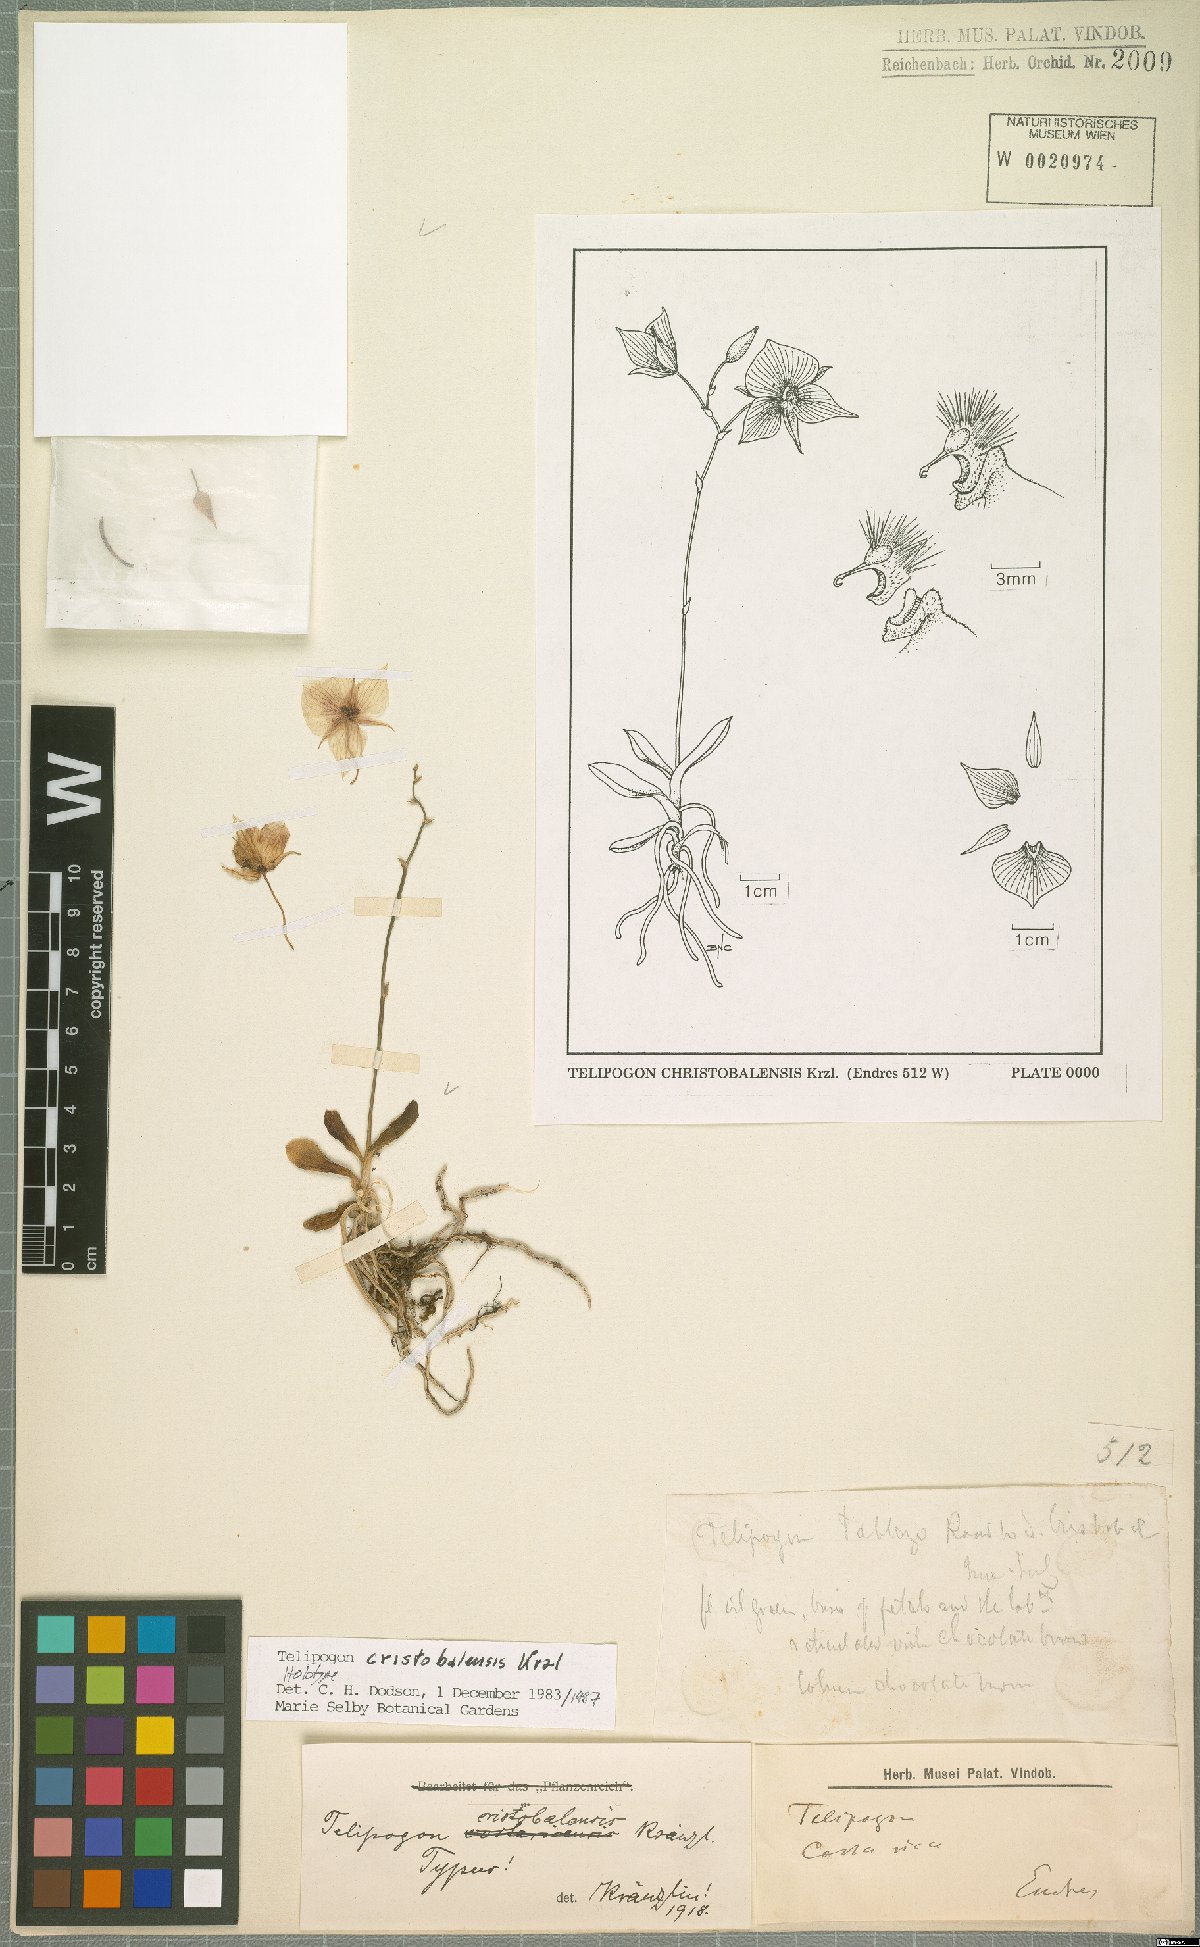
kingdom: Plantae
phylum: Tracheophyta
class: Liliopsida
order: Asparagales
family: Orchidaceae
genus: Telipogon
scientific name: Telipogon christobalensis
